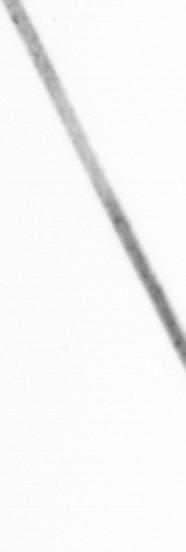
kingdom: Chromista
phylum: Ochrophyta
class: Bacillariophyceae
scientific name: Bacillariophyceae
